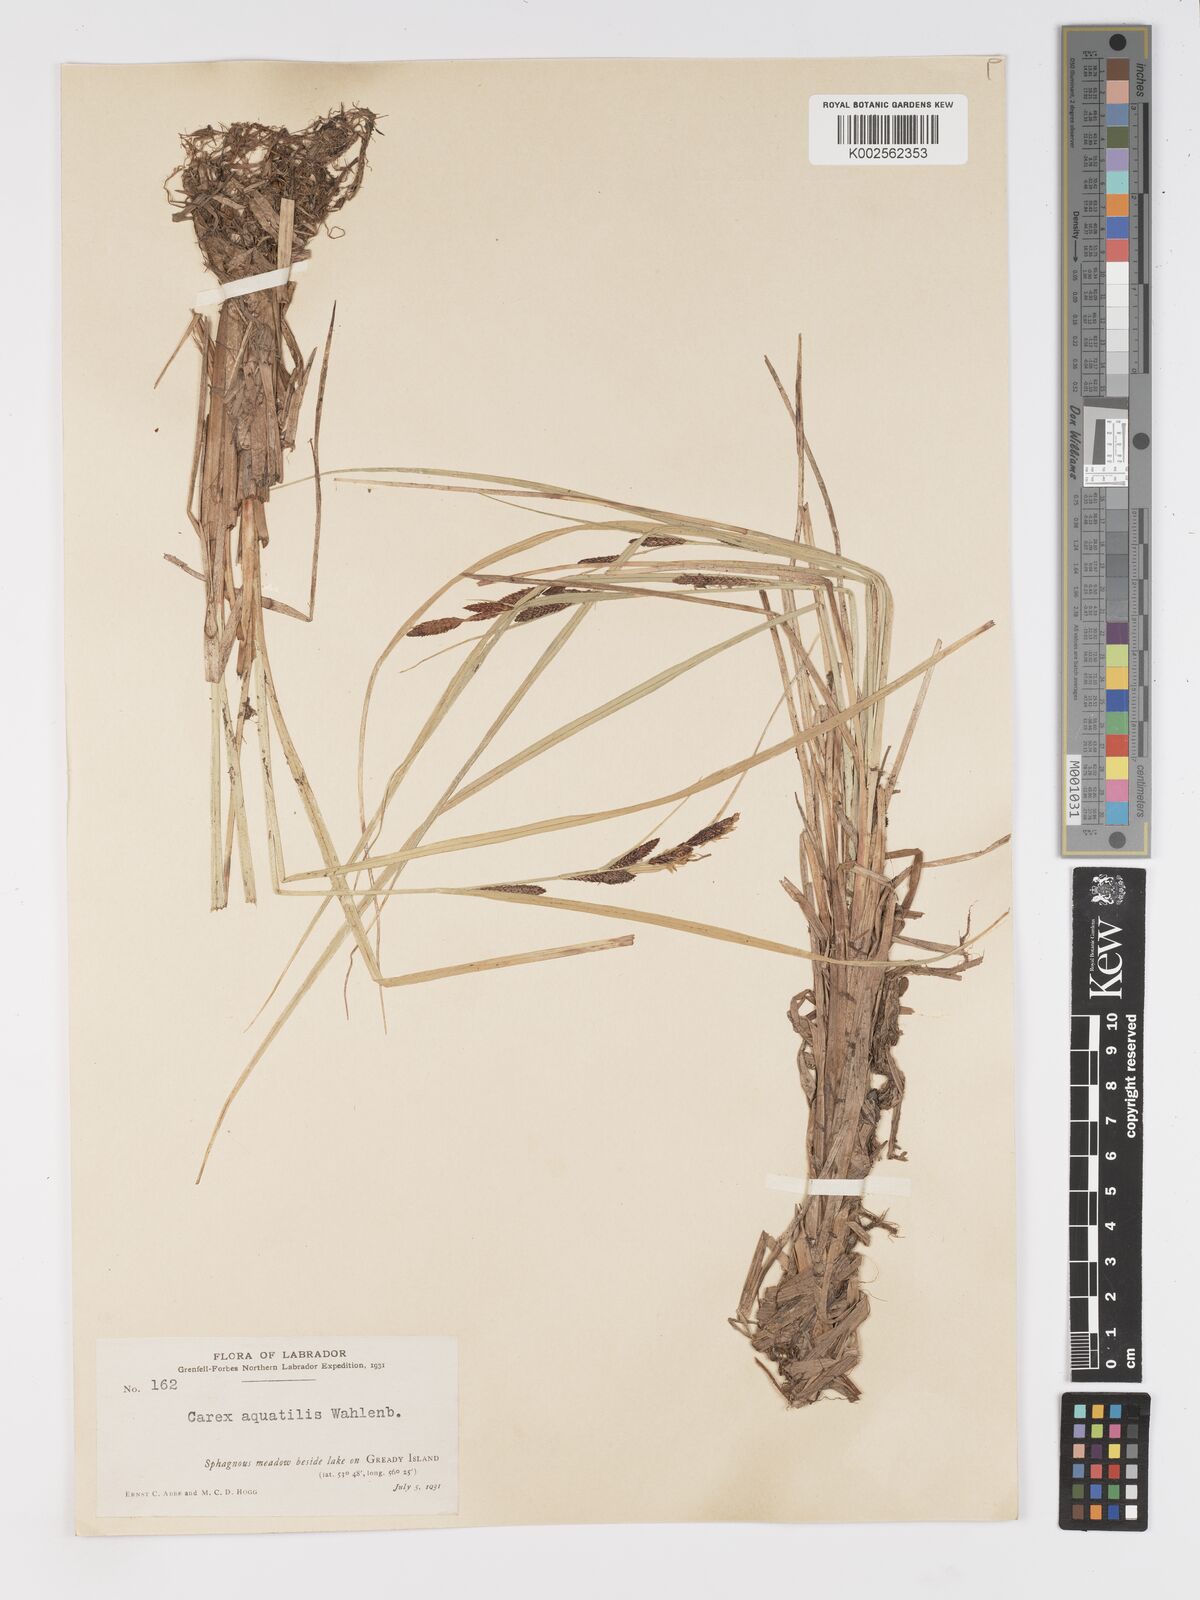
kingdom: Plantae
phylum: Tracheophyta
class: Liliopsida
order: Poales
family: Cyperaceae
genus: Carex
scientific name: Carex aquatilis
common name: Water sedge
